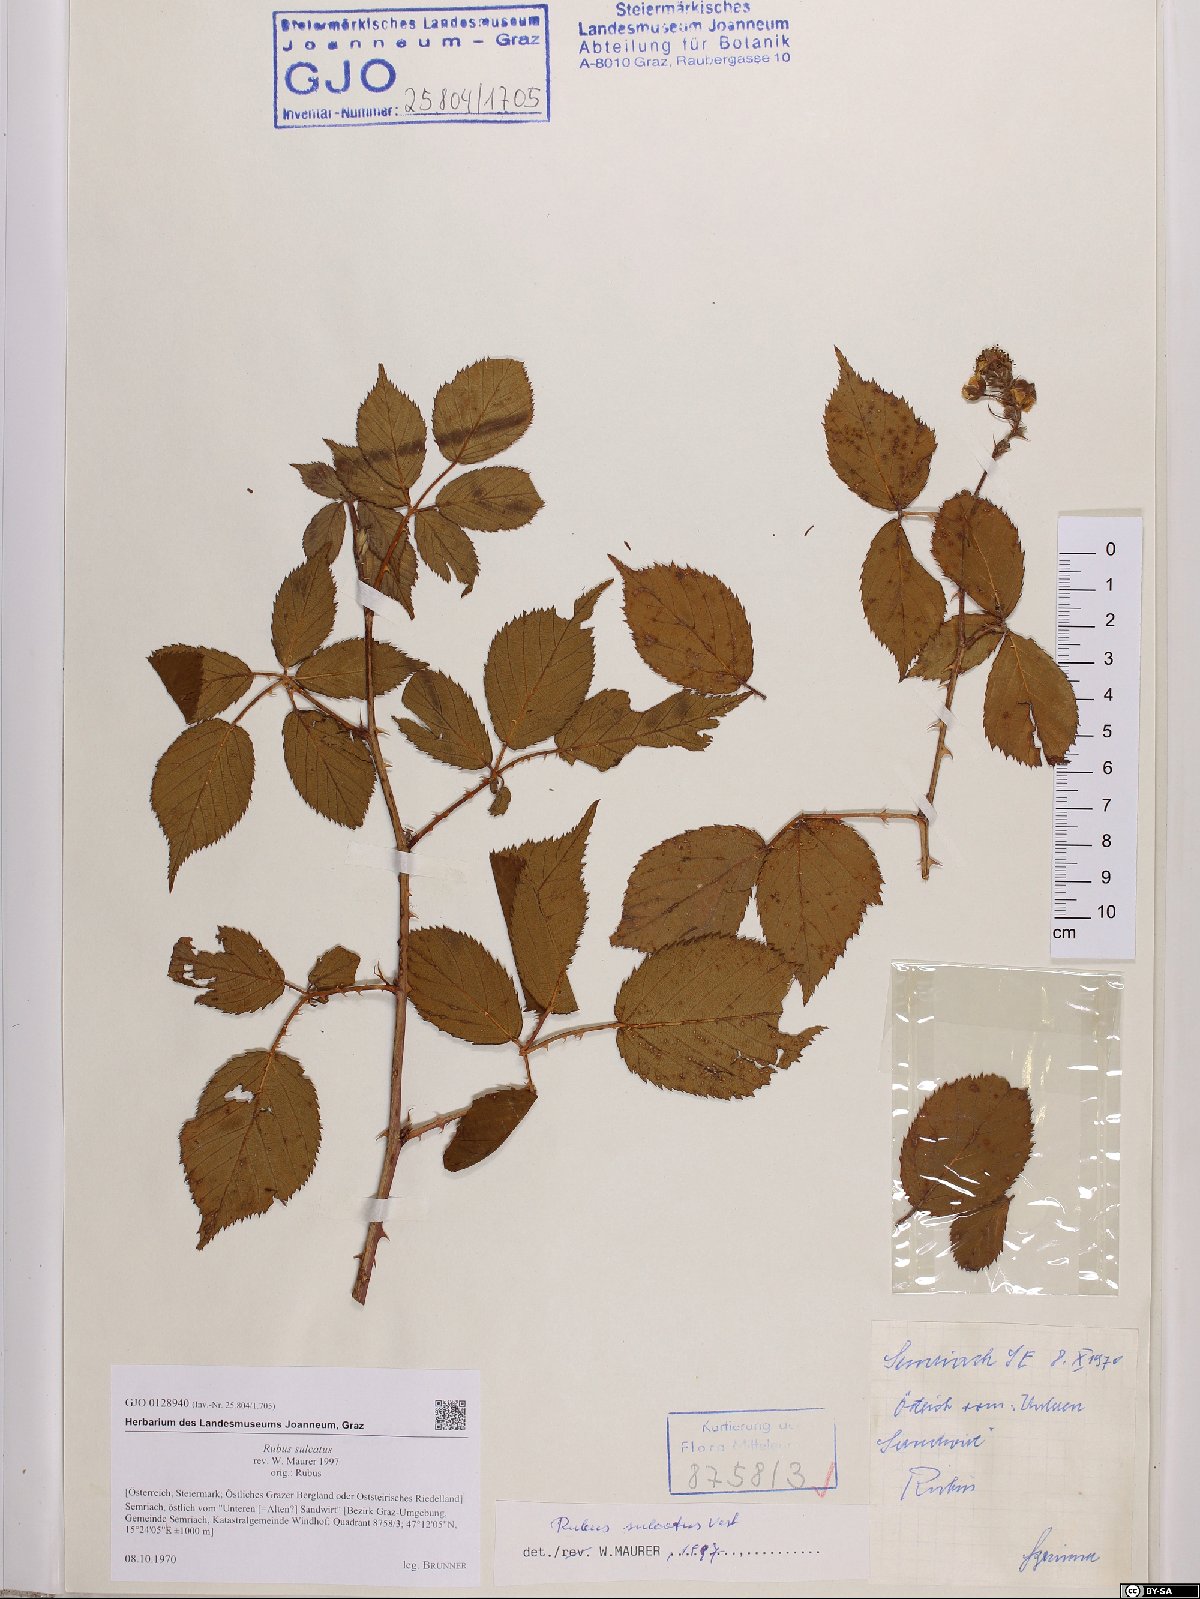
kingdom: Plantae
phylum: Tracheophyta
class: Magnoliopsida
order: Rosales
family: Rosaceae
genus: Rubus
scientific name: Rubus sulcatus
